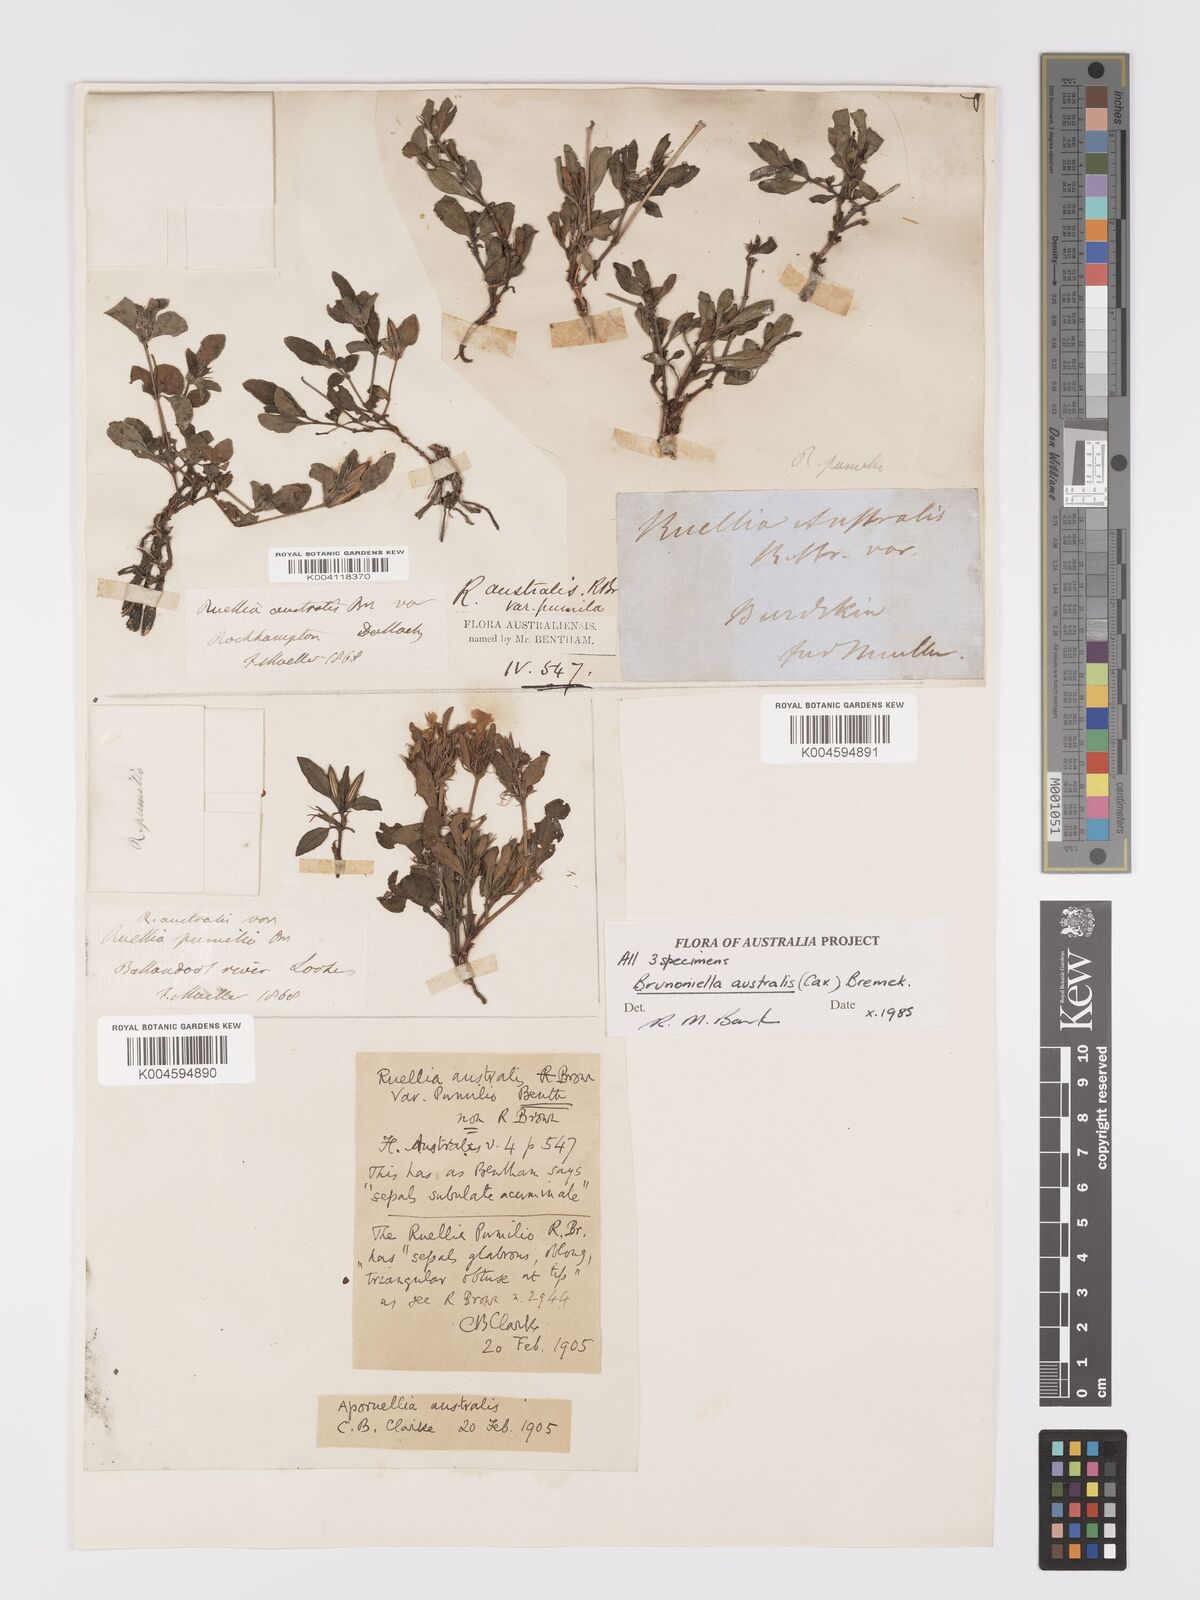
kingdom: Plantae
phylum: Tracheophyta
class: Magnoliopsida
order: Lamiales
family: Acanthaceae
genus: Brunoniella
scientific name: Brunoniella
